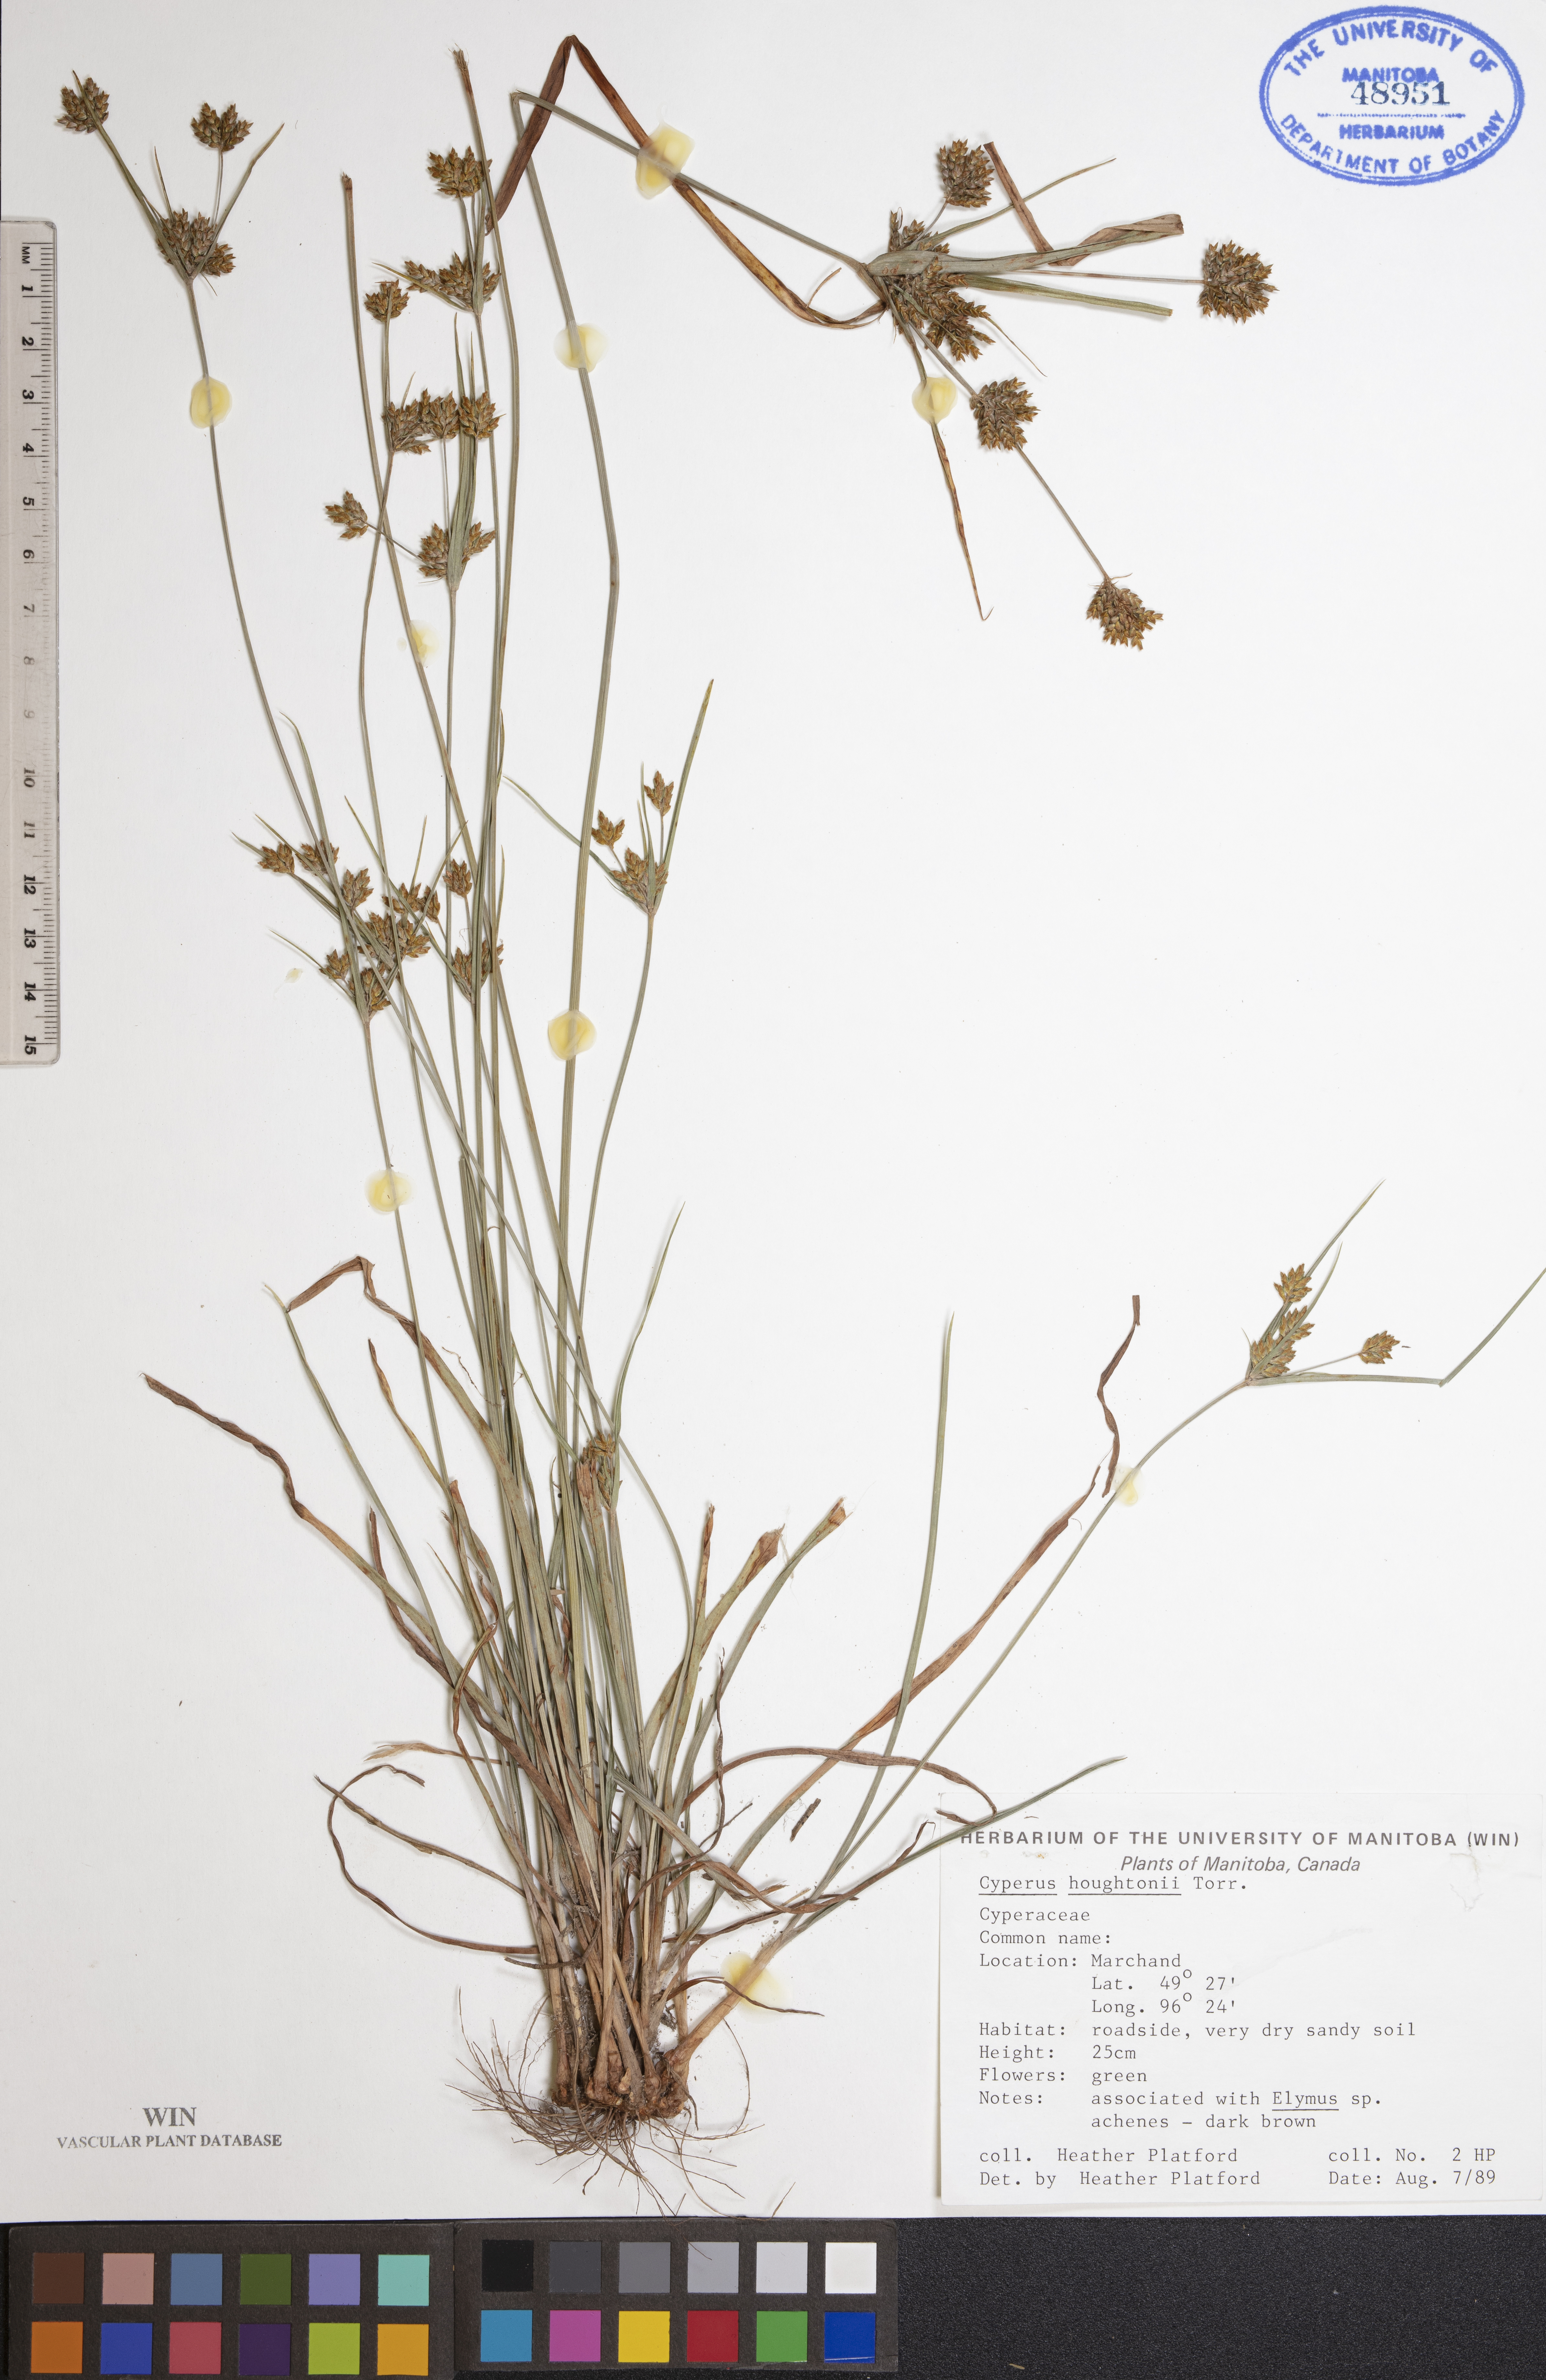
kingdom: Plantae
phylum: Tracheophyta
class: Liliopsida
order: Poales
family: Cyperaceae
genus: Cyperus
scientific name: Cyperus houghtonii
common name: Houghton's cyperus
